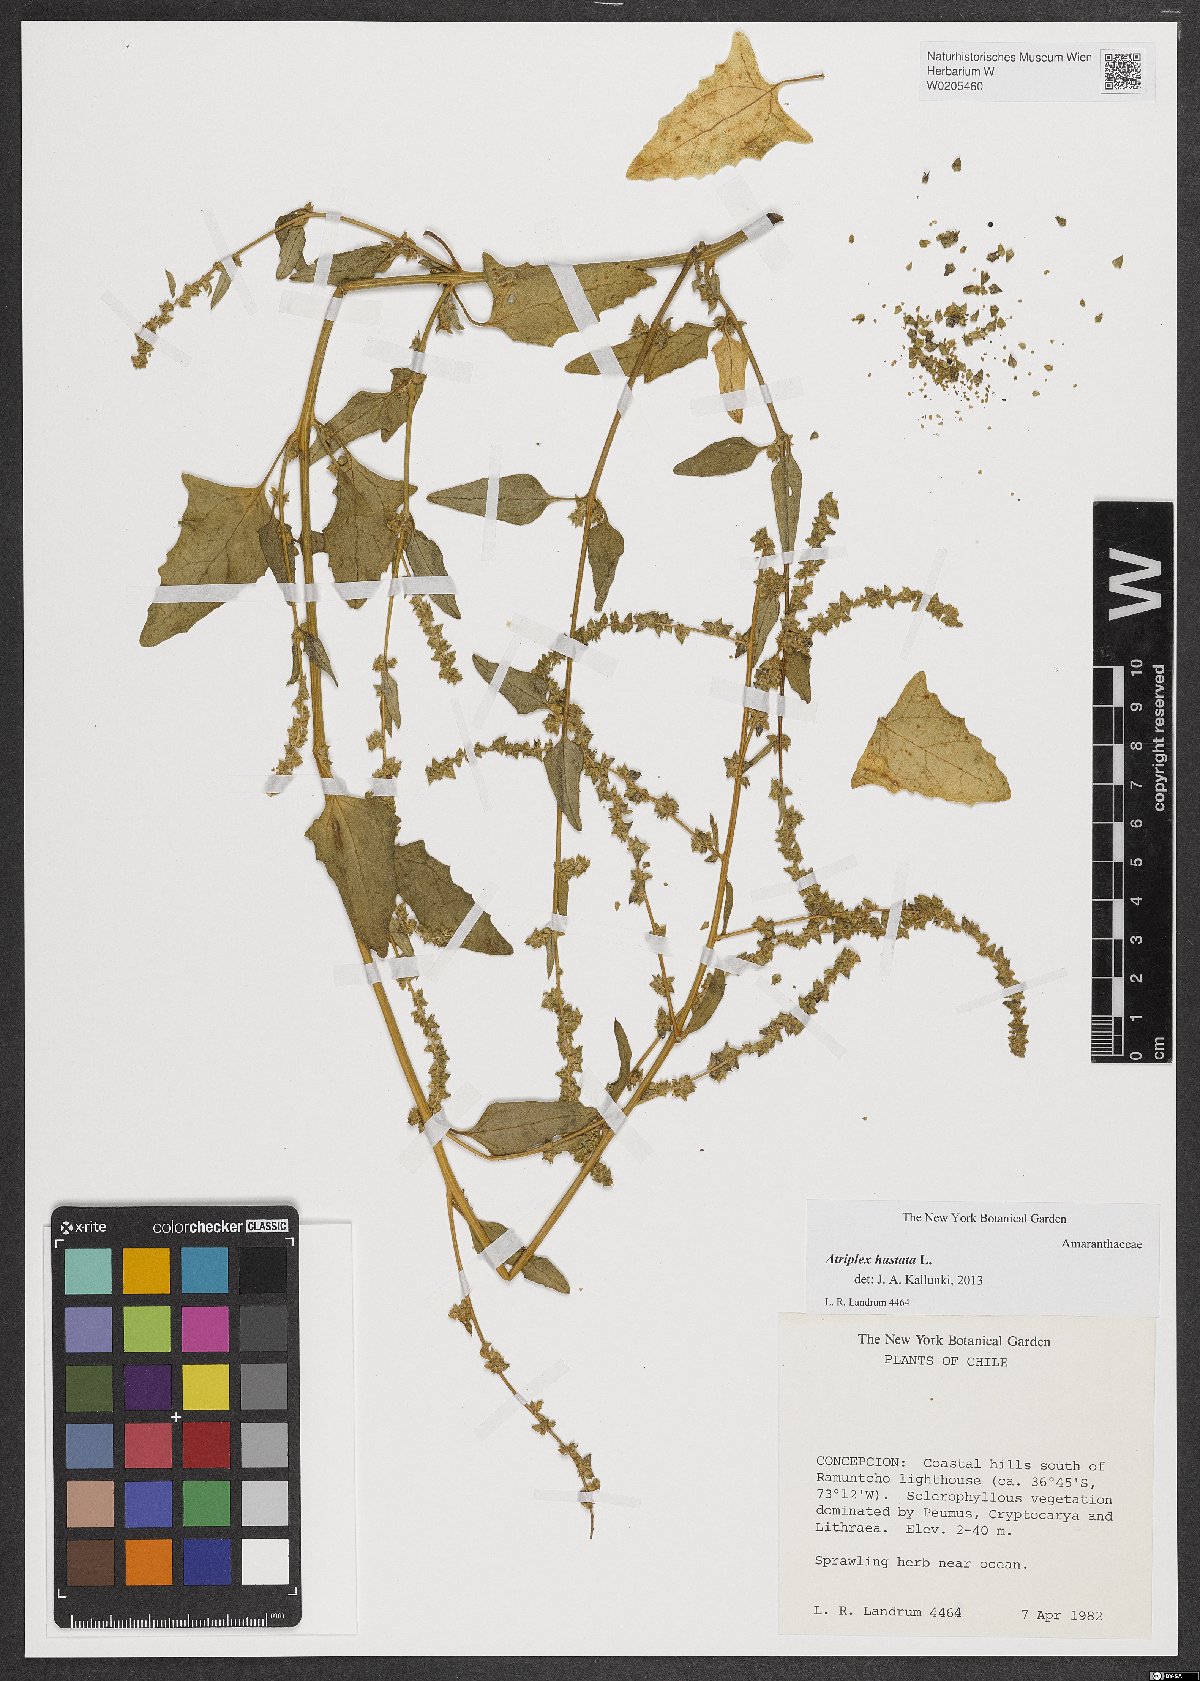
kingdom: Plantae
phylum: Tracheophyta
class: Magnoliopsida
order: Caryophyllales
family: Amaranthaceae
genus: Atriplex
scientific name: Atriplex prostrata
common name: Spear-leaved orache
